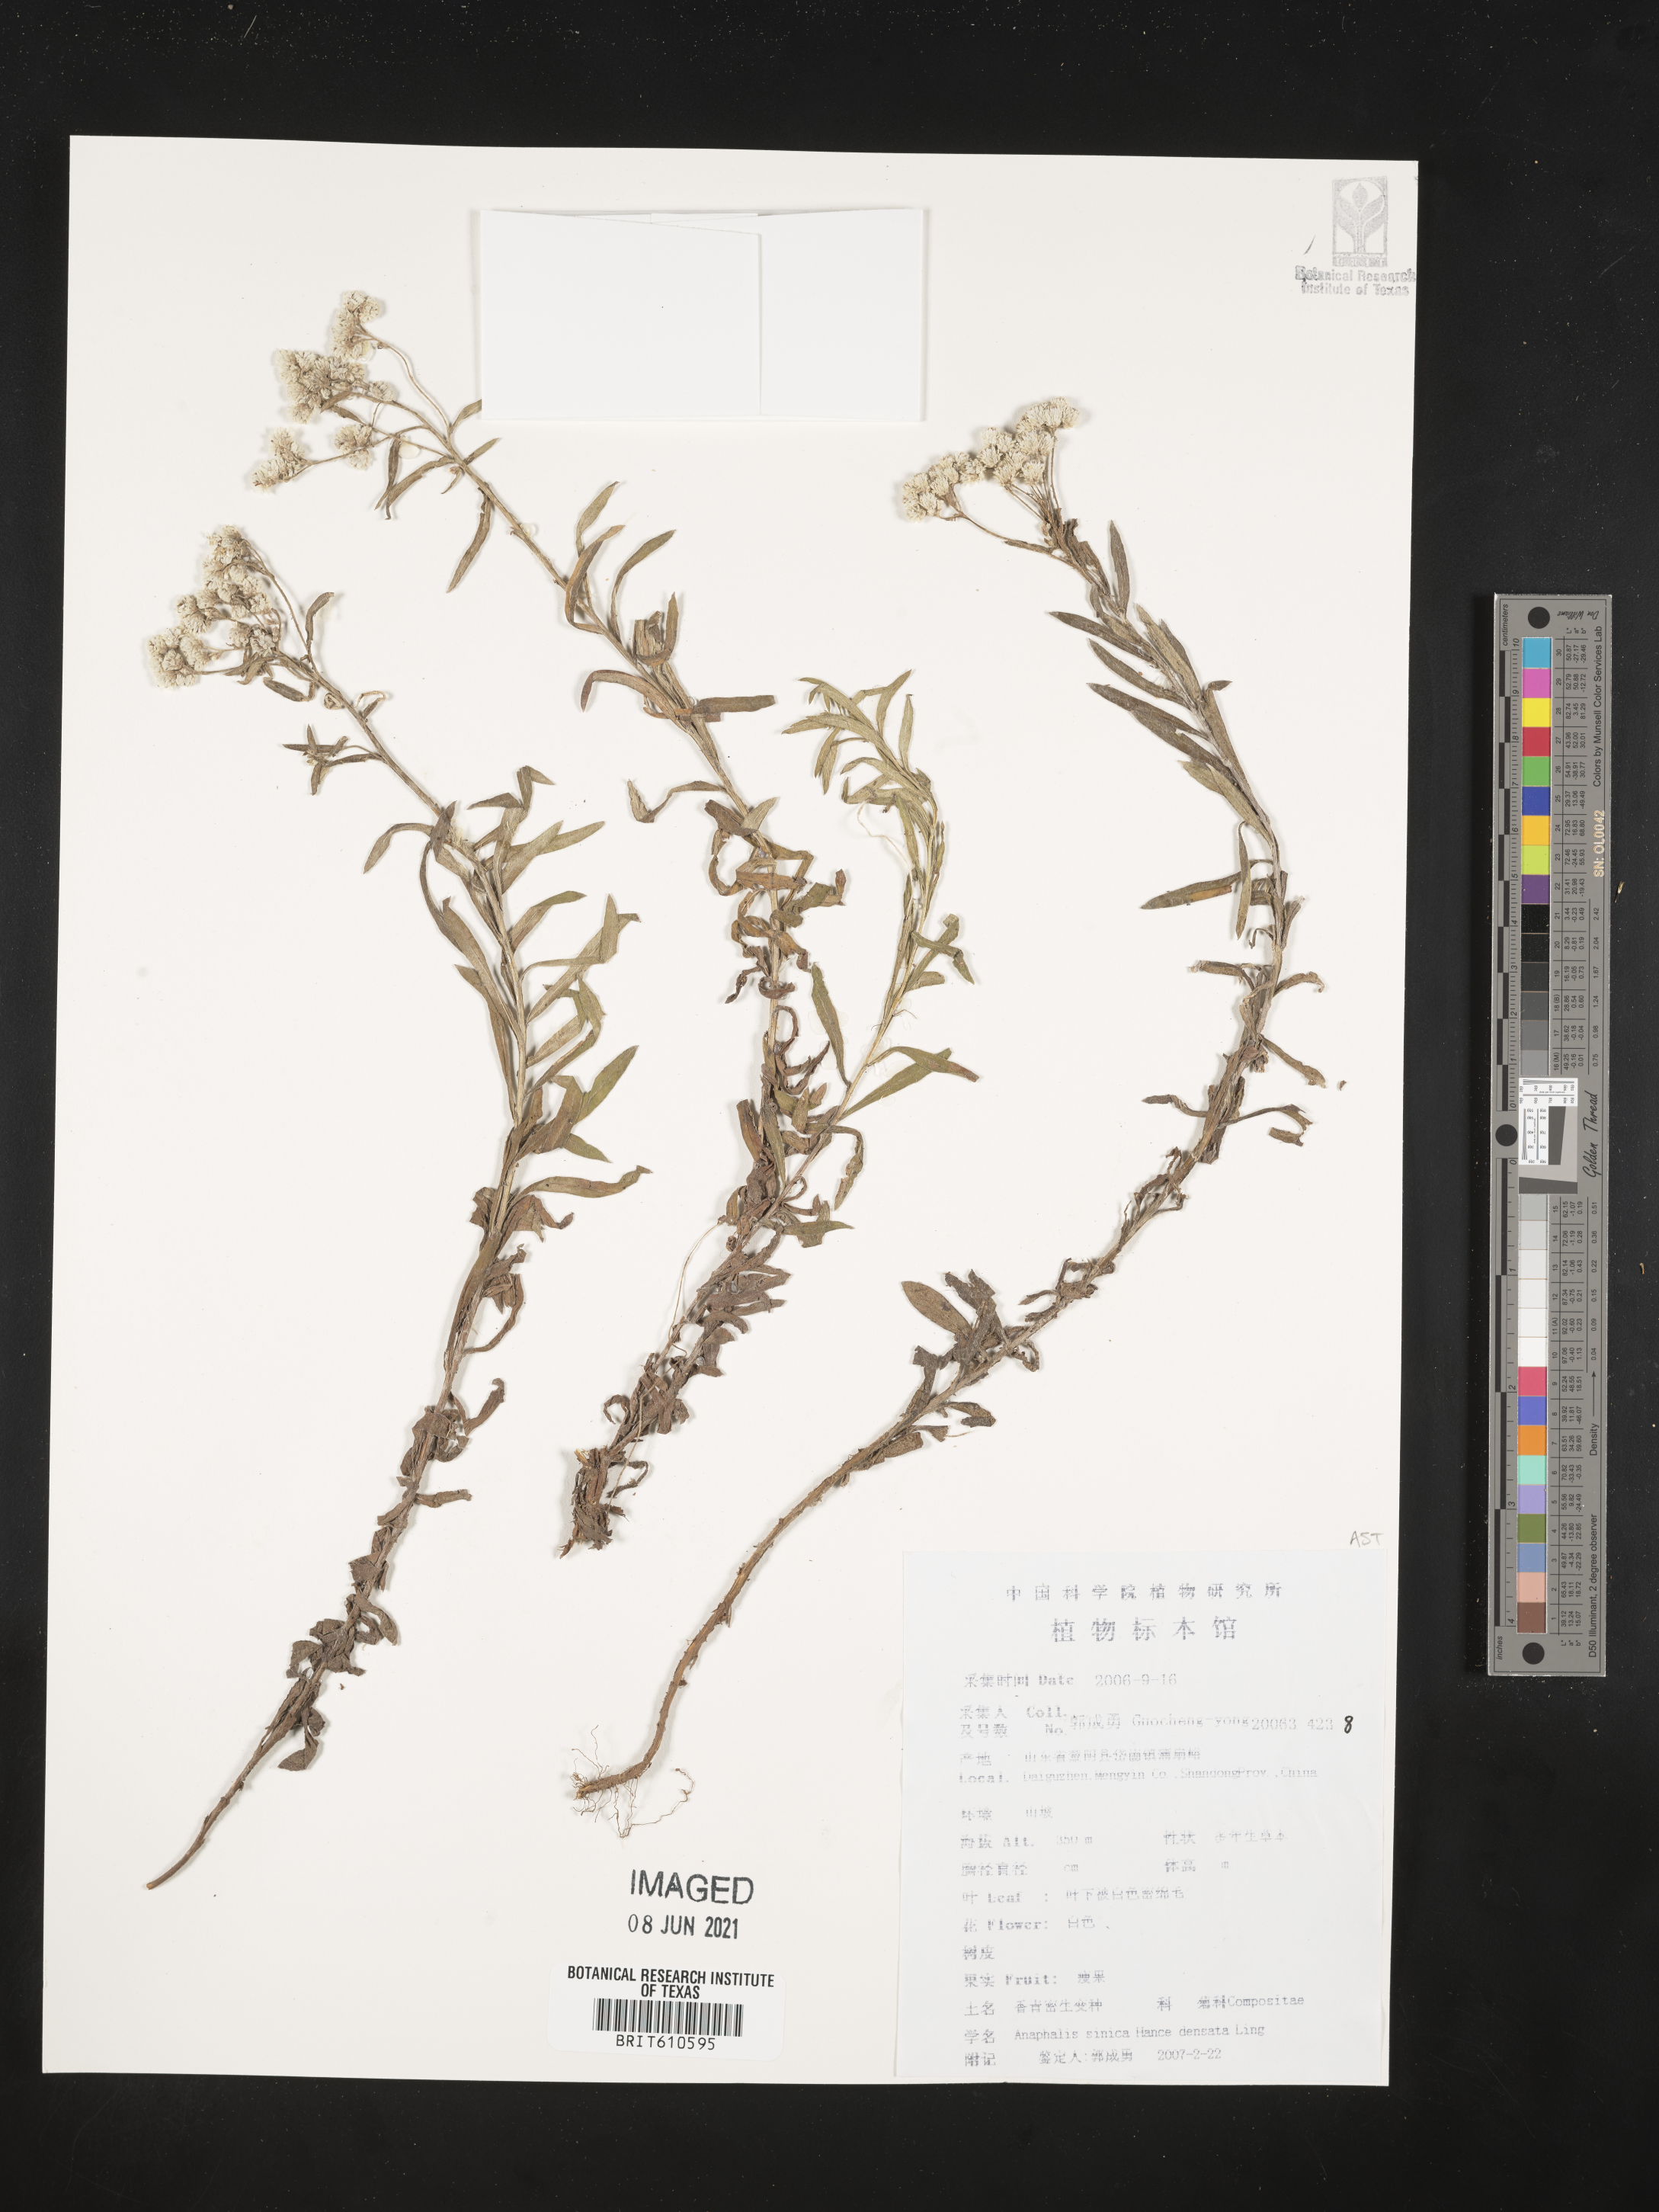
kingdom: Plantae
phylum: Tracheophyta
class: Magnoliopsida
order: Asterales
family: Asteraceae
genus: Anaphalis
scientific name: Anaphalis sinica
